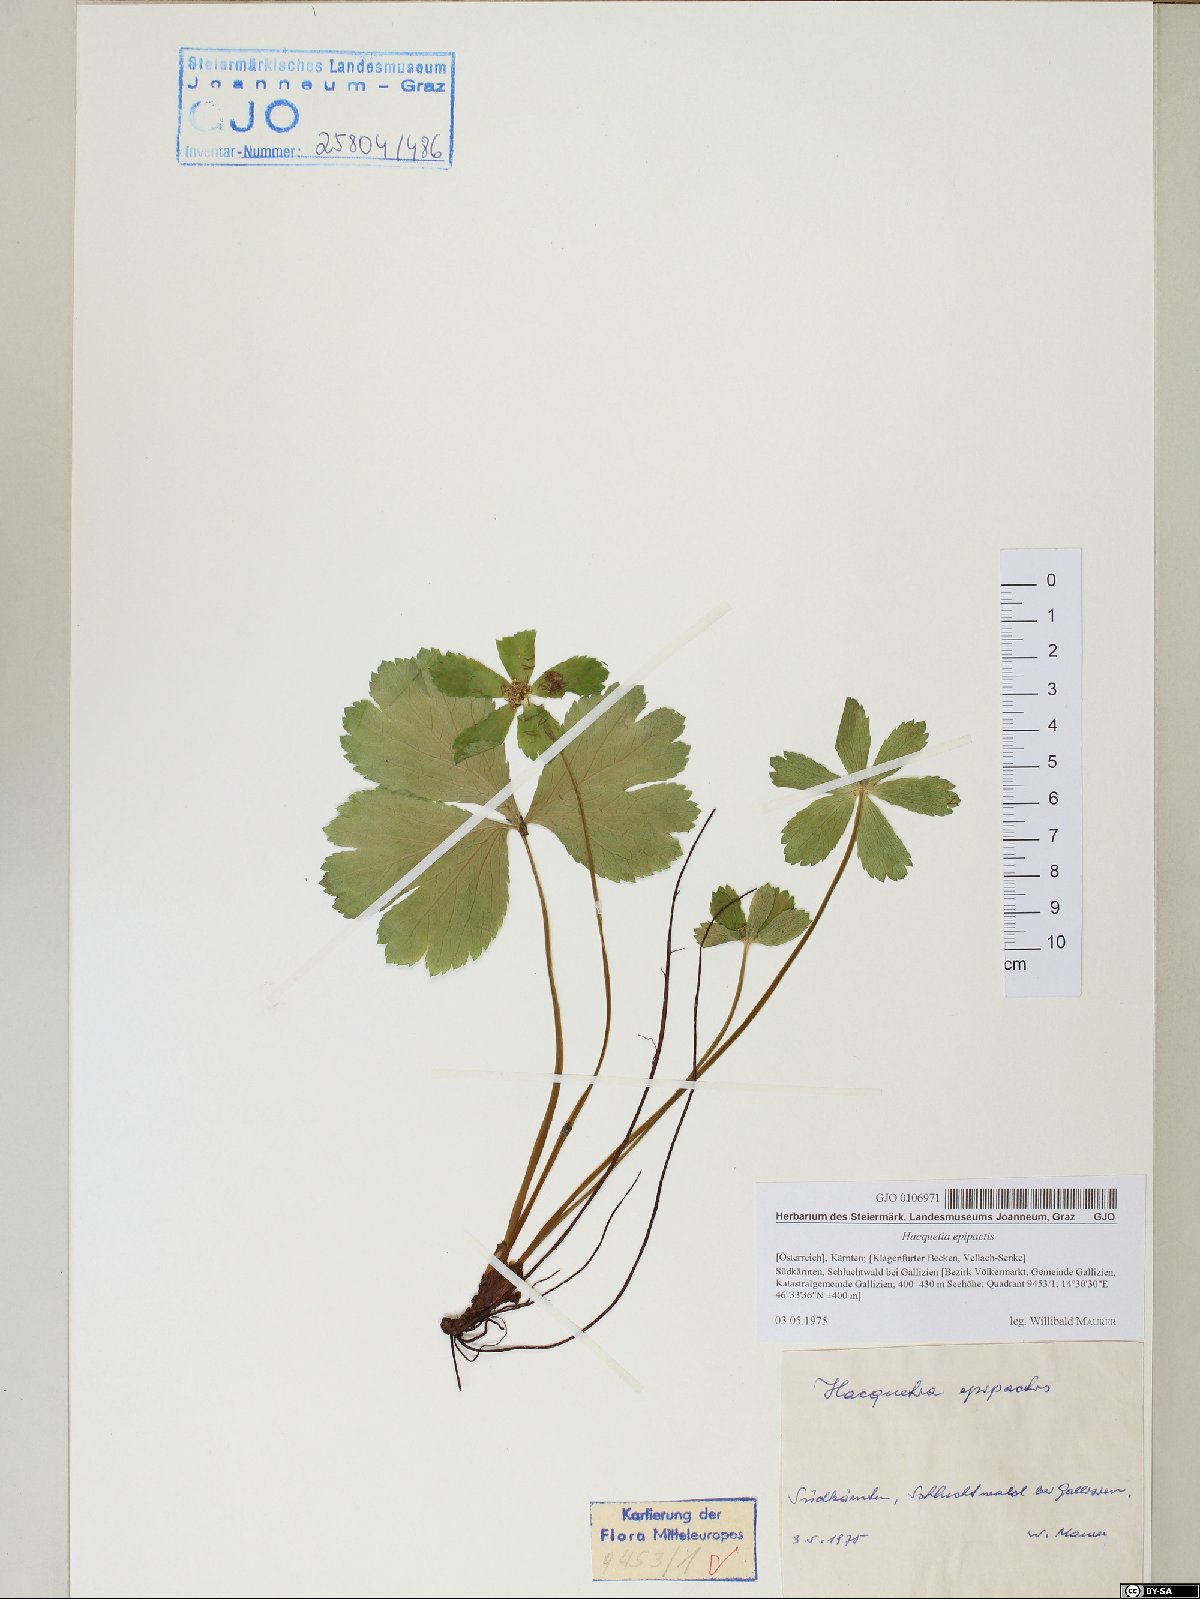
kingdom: Plantae
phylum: Tracheophyta
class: Magnoliopsida
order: Apiales
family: Apiaceae
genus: Sanicula
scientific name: Sanicula epipactis
